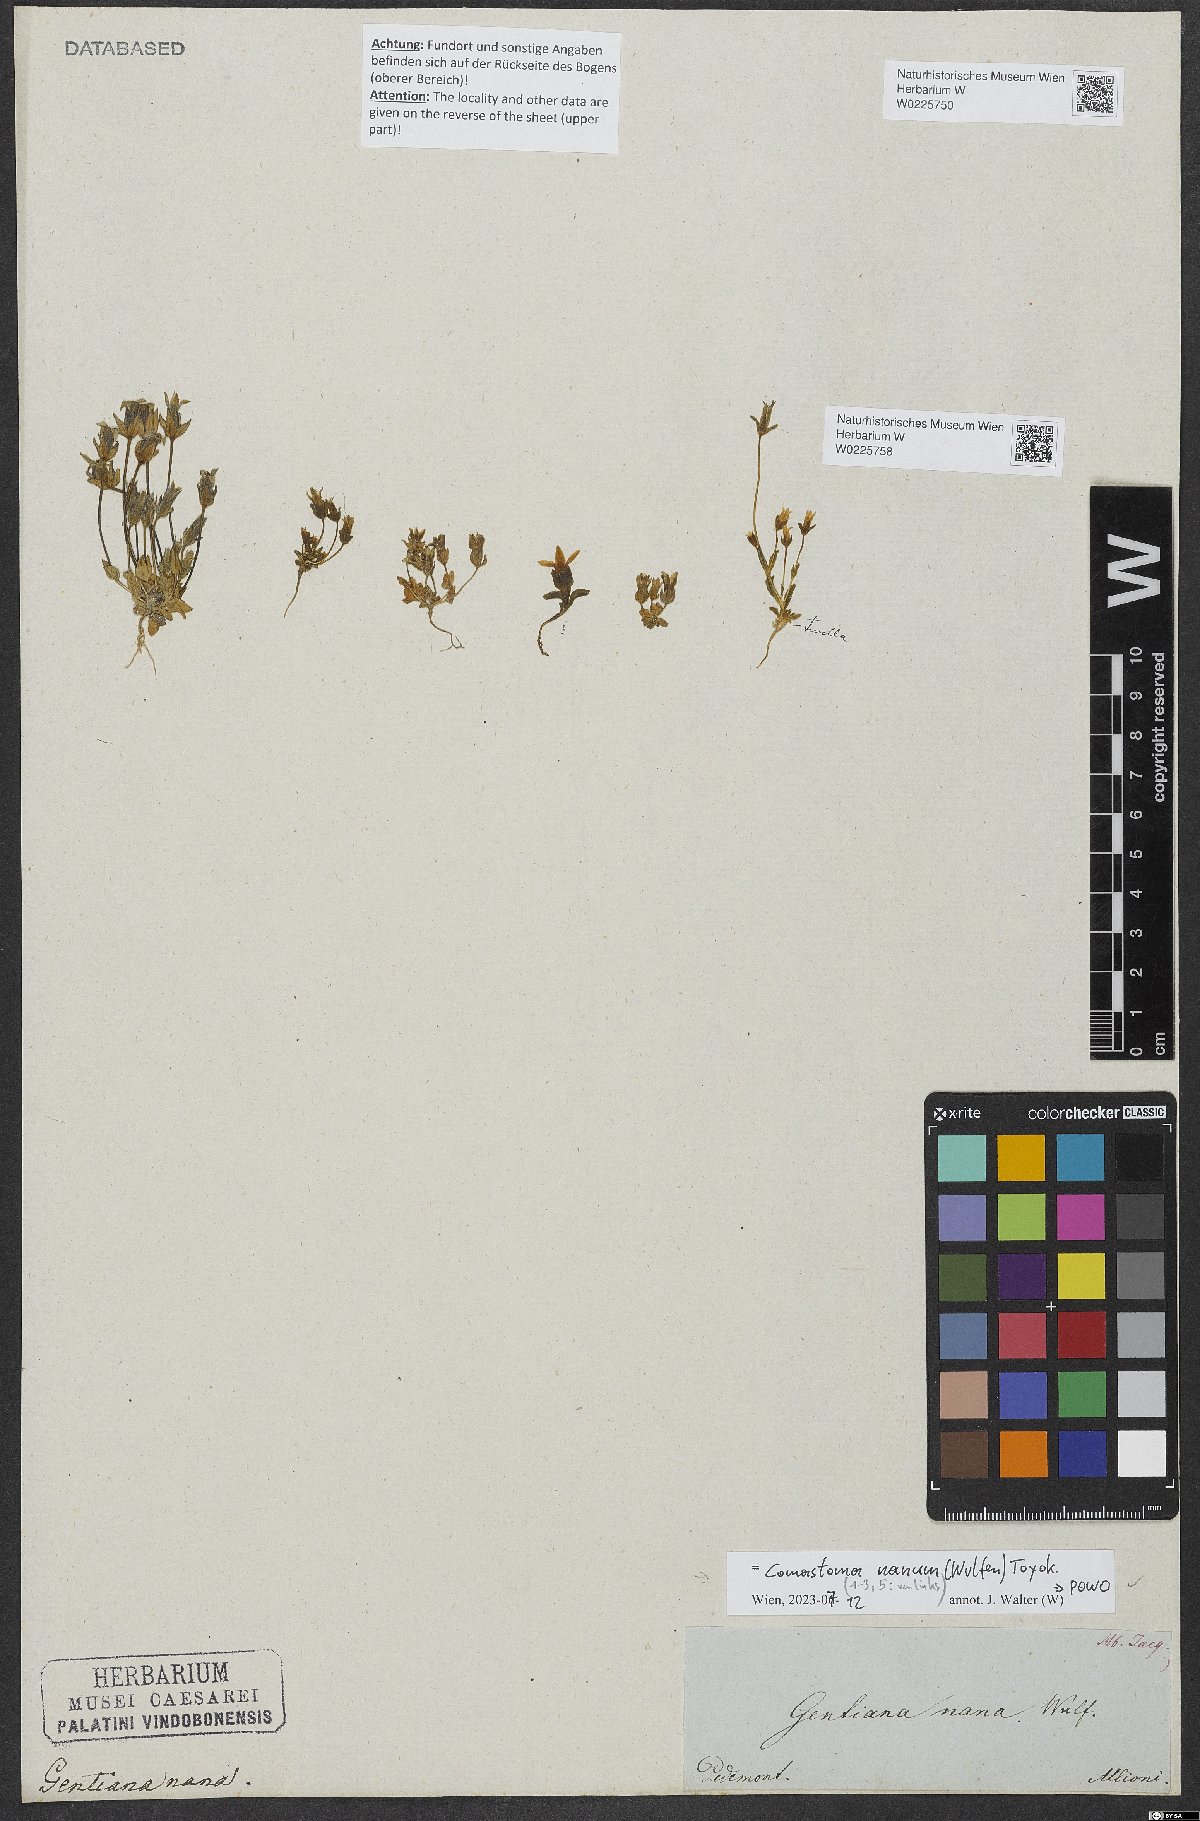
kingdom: Plantae
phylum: Tracheophyta
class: Magnoliopsida
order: Gentianales
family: Gentianaceae
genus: Comastoma
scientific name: Comastoma tenellum
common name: Dane's dwarf gentian
